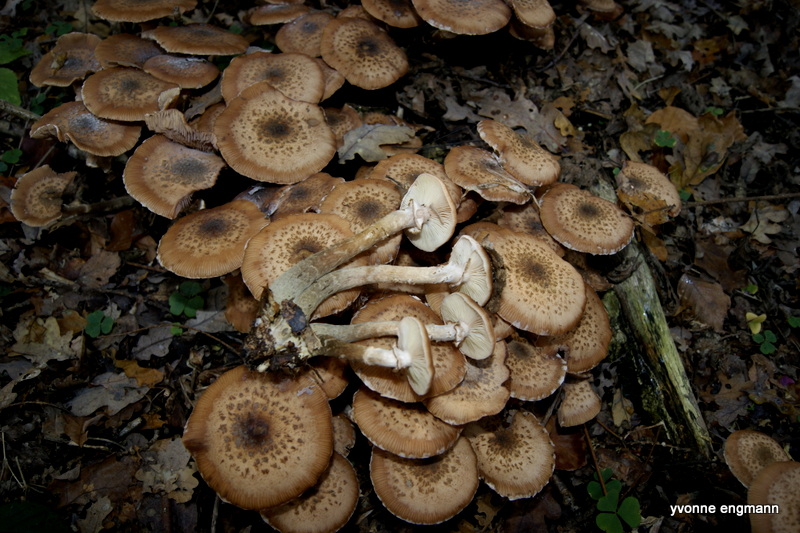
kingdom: Fungi
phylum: Basidiomycota
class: Agaricomycetes
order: Agaricales
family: Physalacriaceae
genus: Armillaria
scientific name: Armillaria ostoyae
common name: mørk honningsvamp
